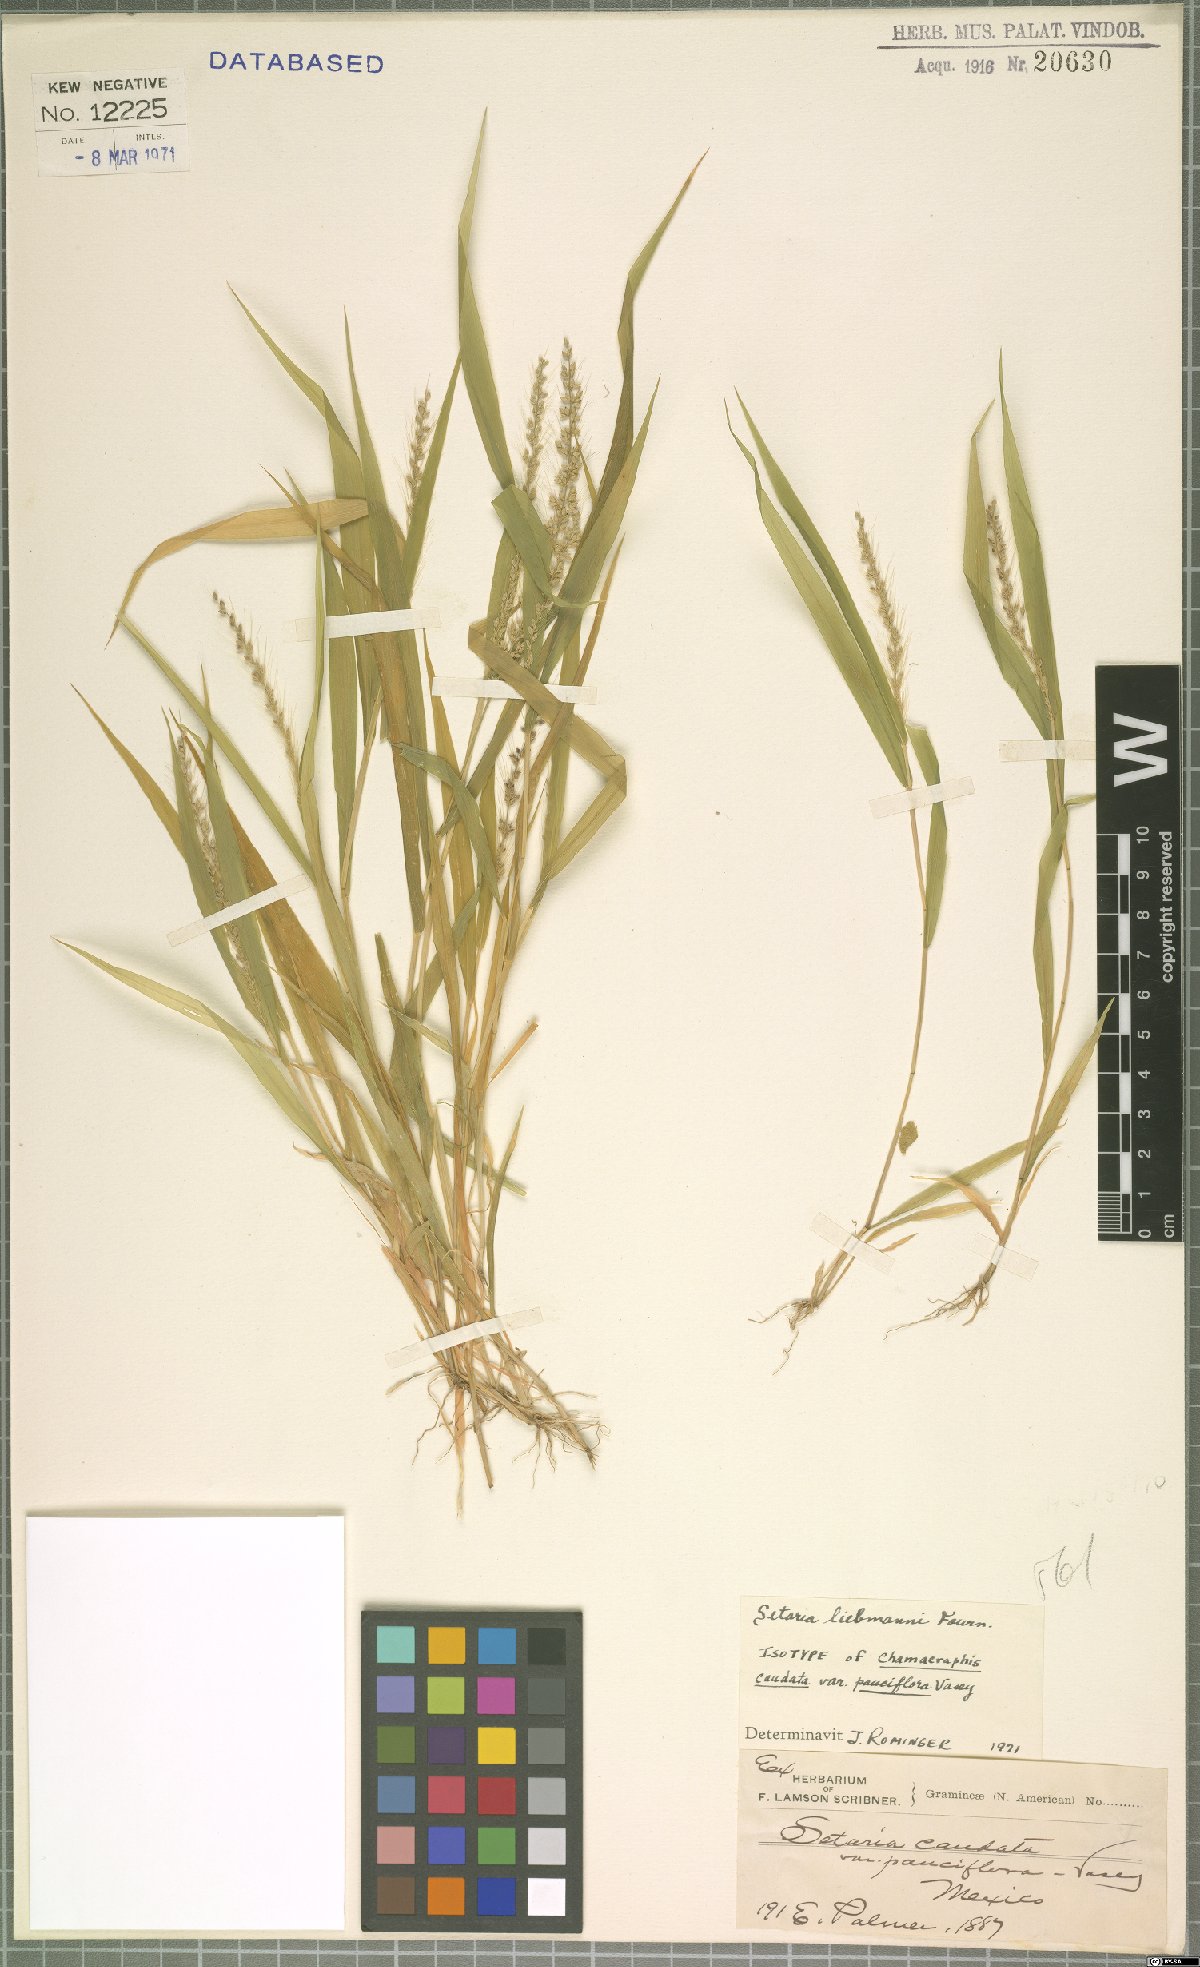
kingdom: Plantae
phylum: Tracheophyta
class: Liliopsida
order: Poales
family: Poaceae
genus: Setaria
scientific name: Setaria liebmannii
